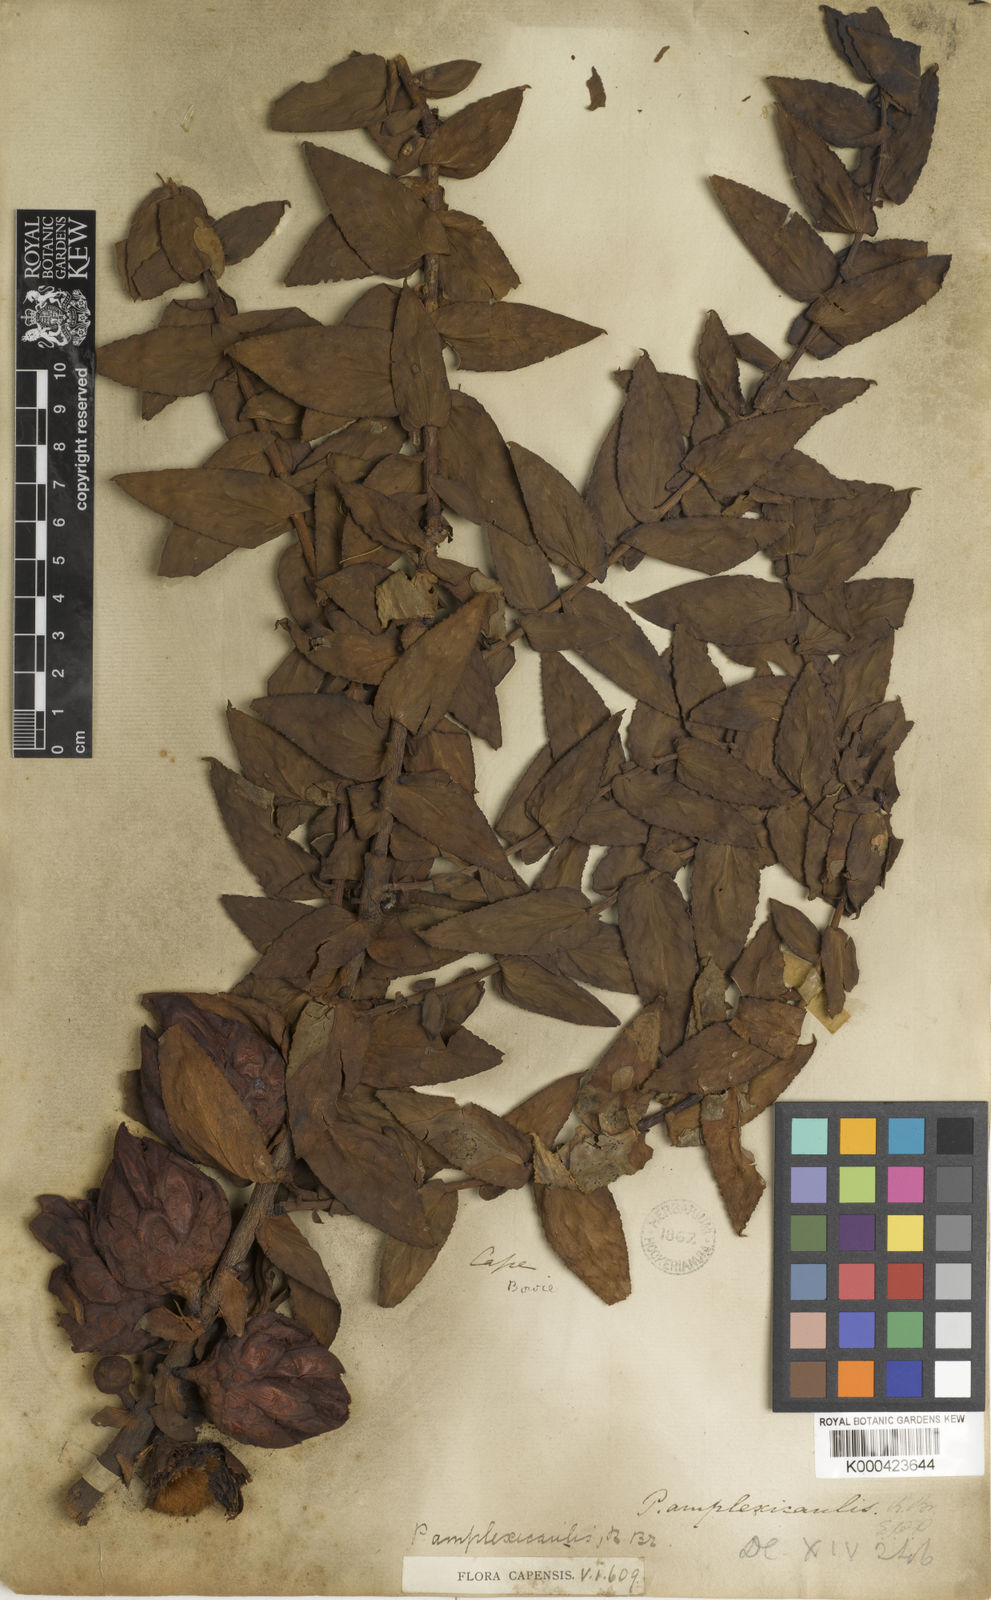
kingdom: Plantae
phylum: Tracheophyta
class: Magnoliopsida
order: Proteales
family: Proteaceae
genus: Protea
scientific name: Protea amplexicaulis
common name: Clasping-leaf sugarbush
